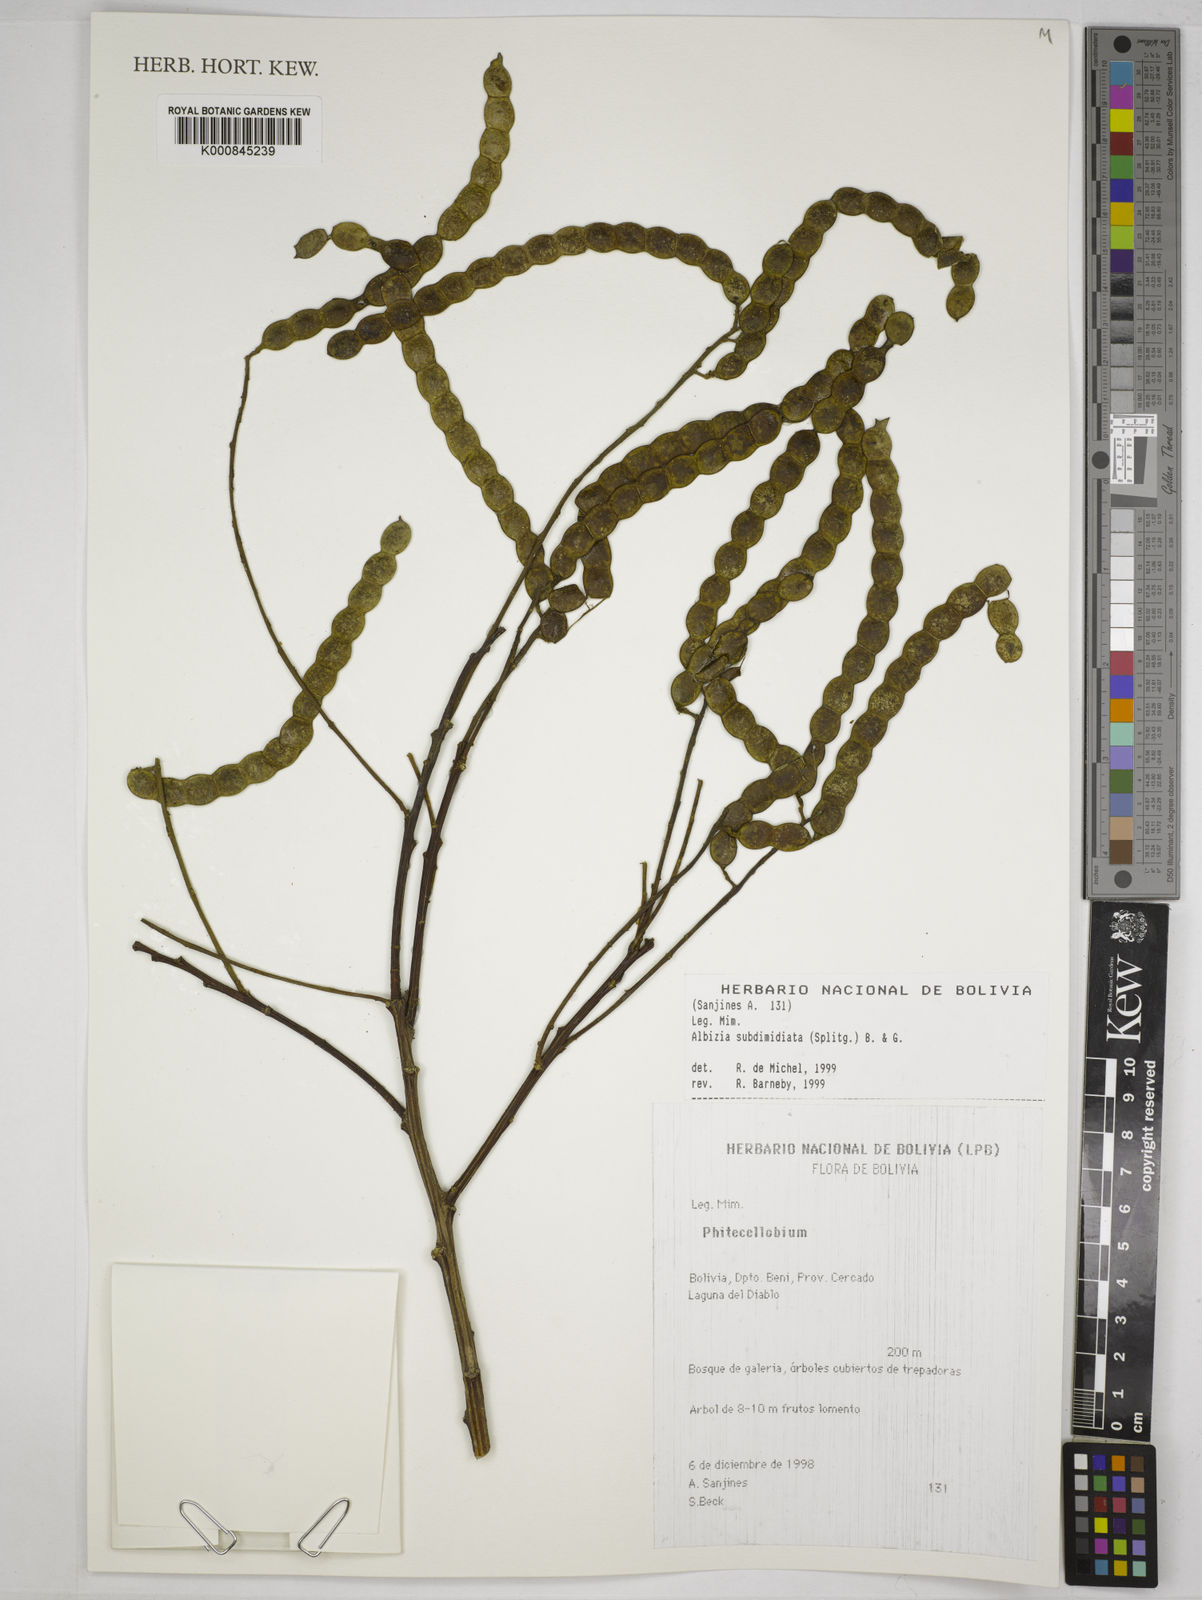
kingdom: Plantae
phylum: Tracheophyta
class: Magnoliopsida
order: Fabales
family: Fabaceae
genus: Albizia
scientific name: Albizia subdimidiata
